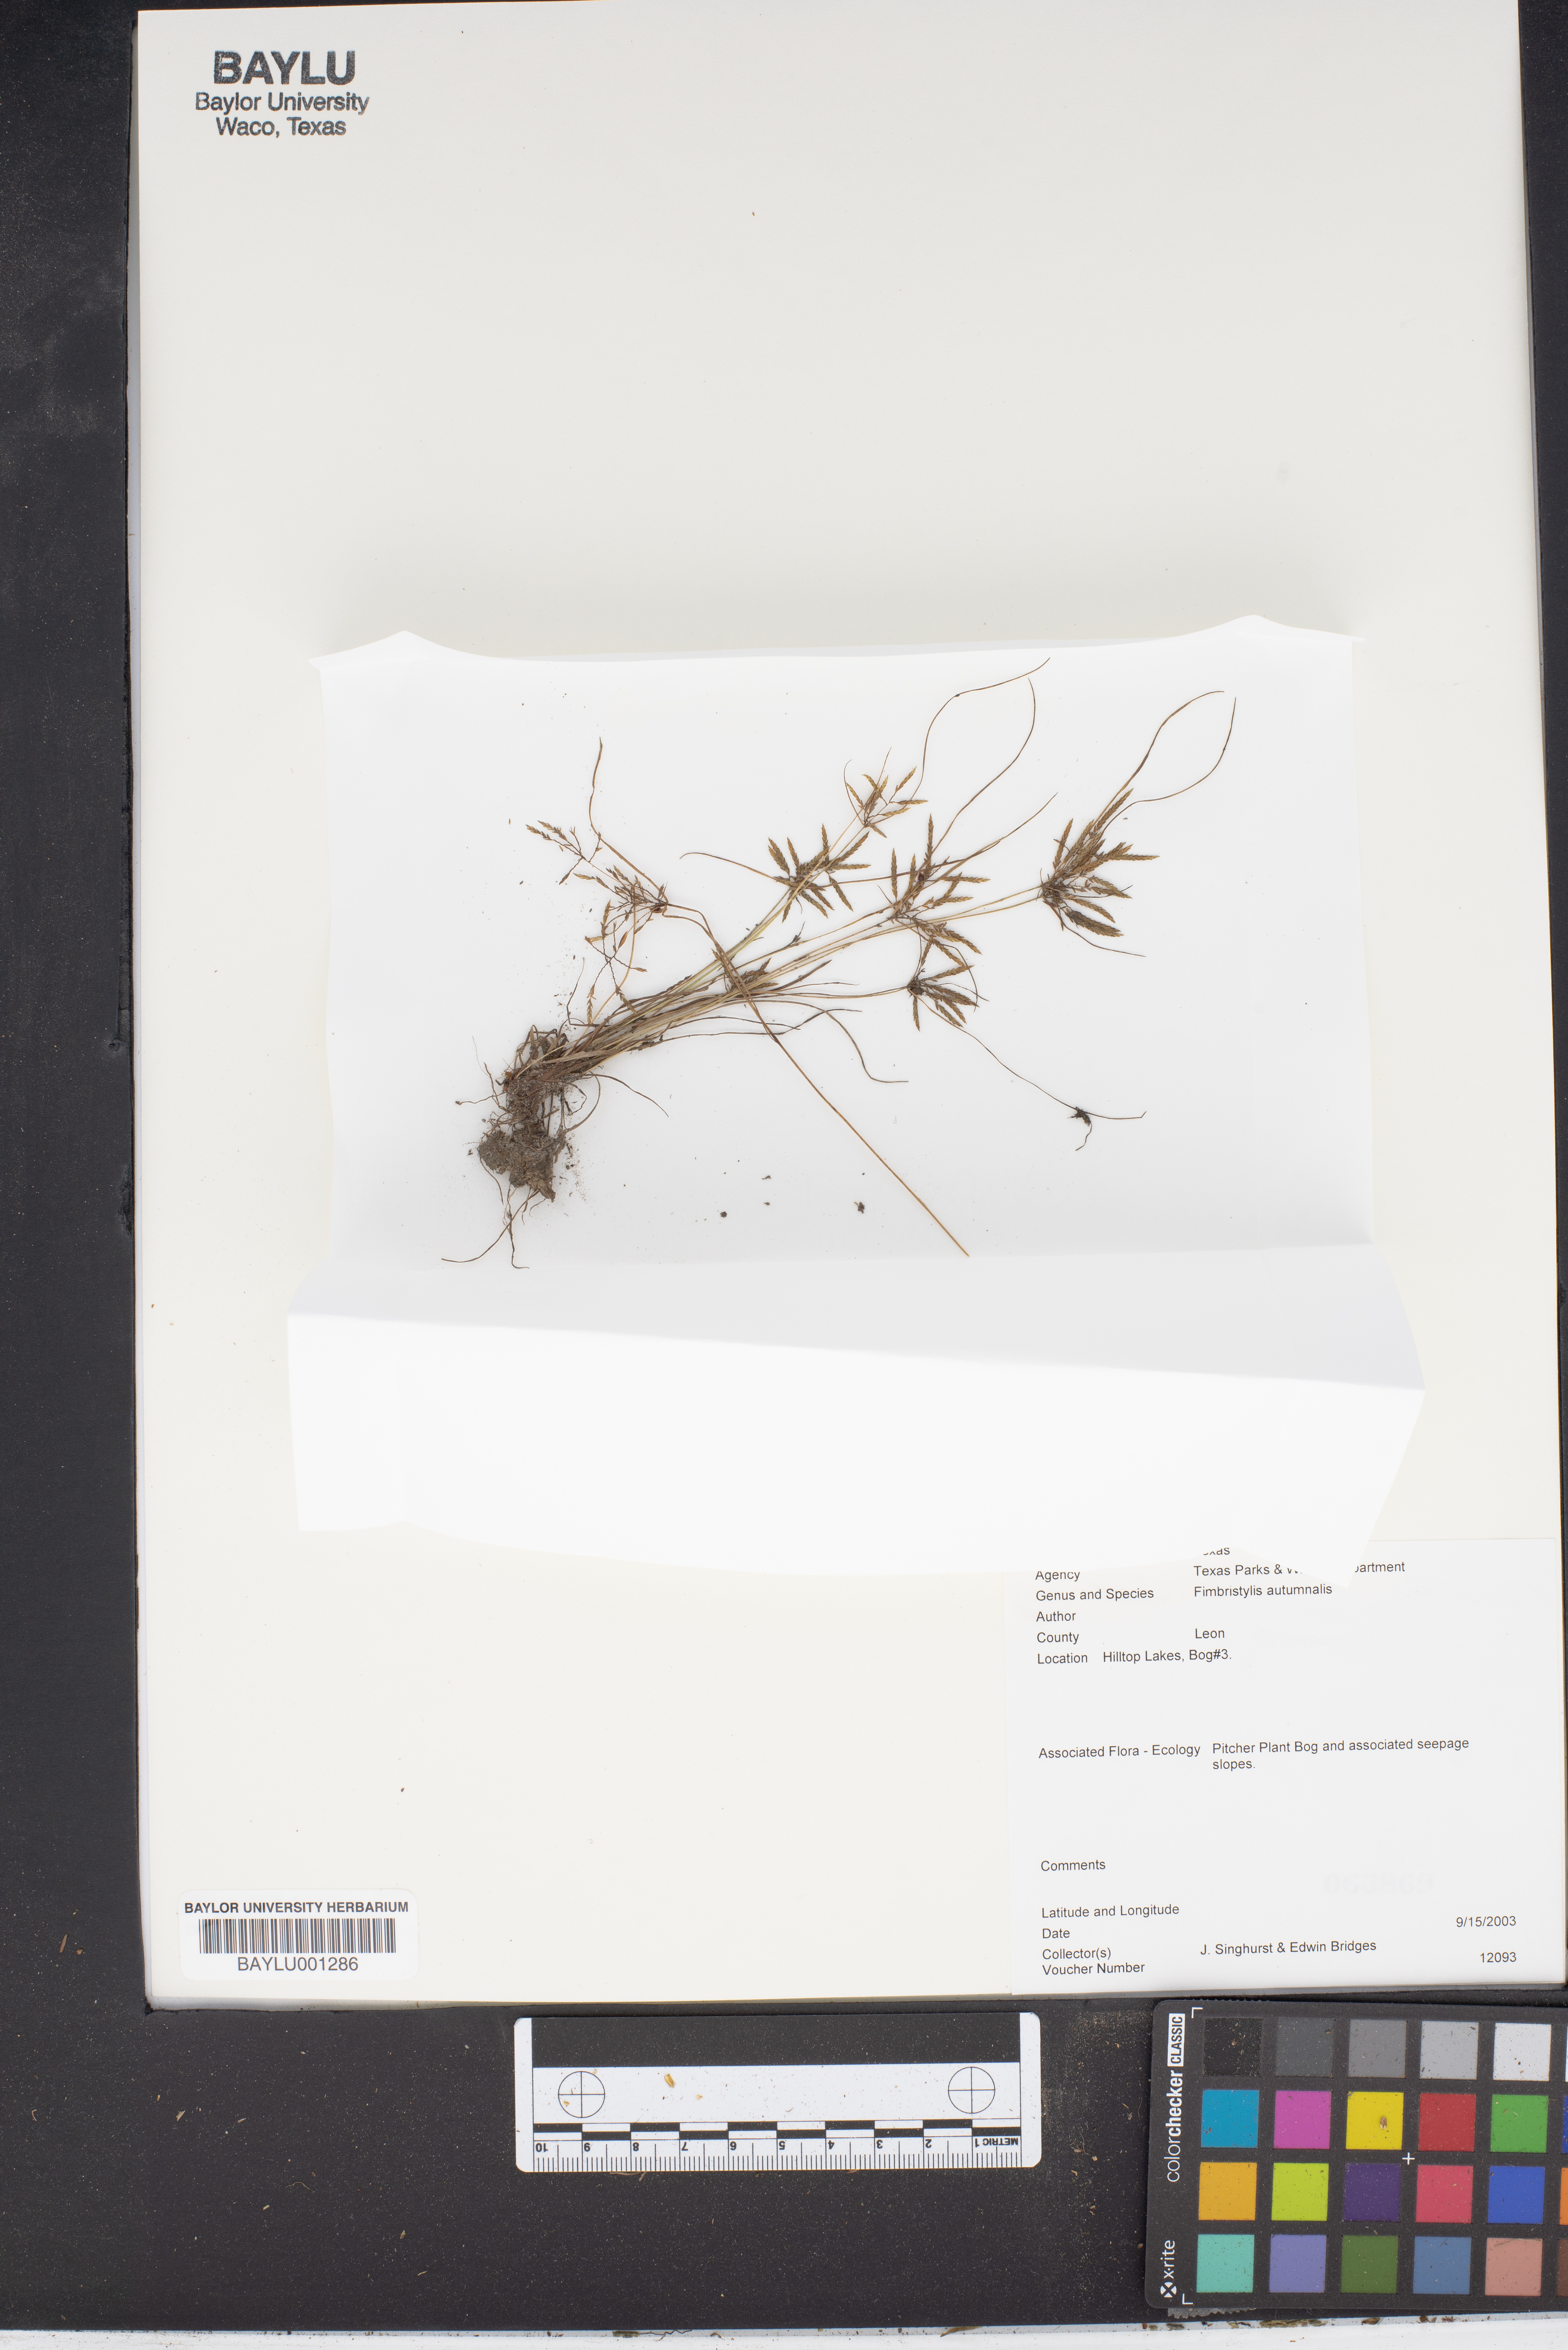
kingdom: Plantae
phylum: Tracheophyta
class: Liliopsida
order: Poales
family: Cyperaceae
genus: Fimbristylis
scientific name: Fimbristylis autumnalis
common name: Slender fimbristylis
